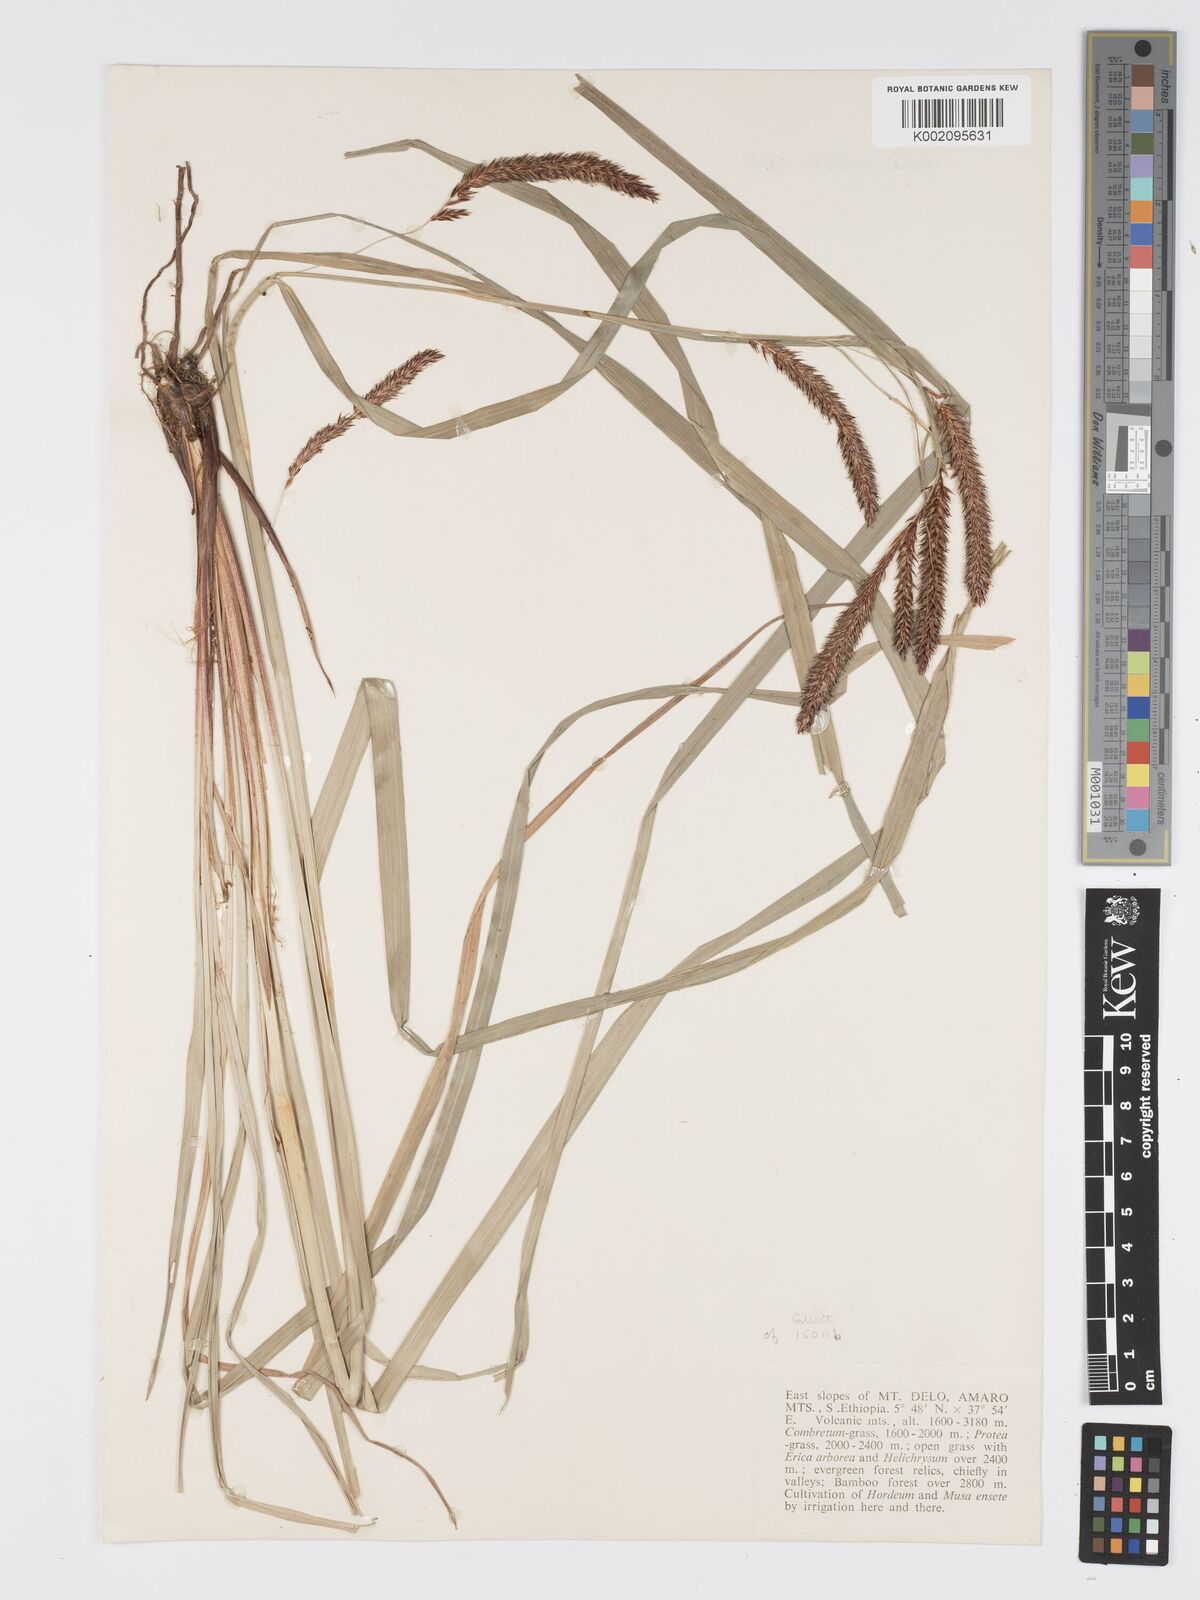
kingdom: Plantae
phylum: Tracheophyta
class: Liliopsida
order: Poales
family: Cyperaceae
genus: Carex
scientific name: Carex simensis
